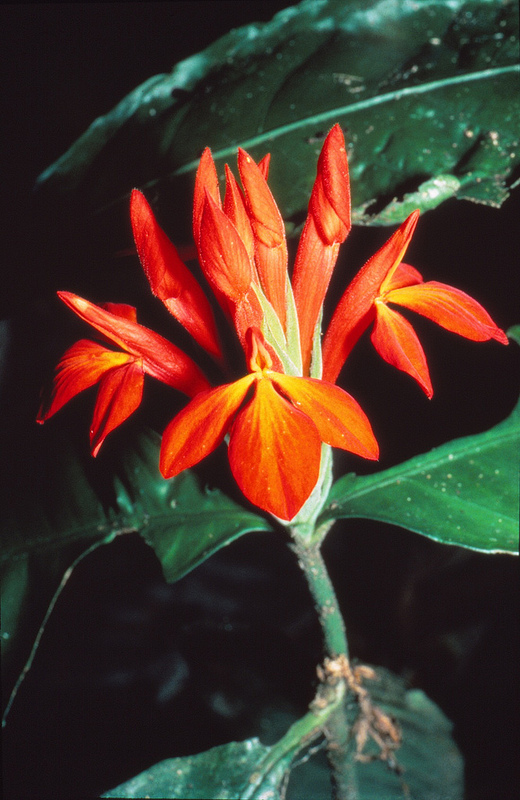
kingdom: Plantae
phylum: Tracheophyta
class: Magnoliopsida
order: Lamiales
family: Acanthaceae
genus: Aphelandra
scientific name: Aphelandra aurantiaca
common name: Fiery spike
